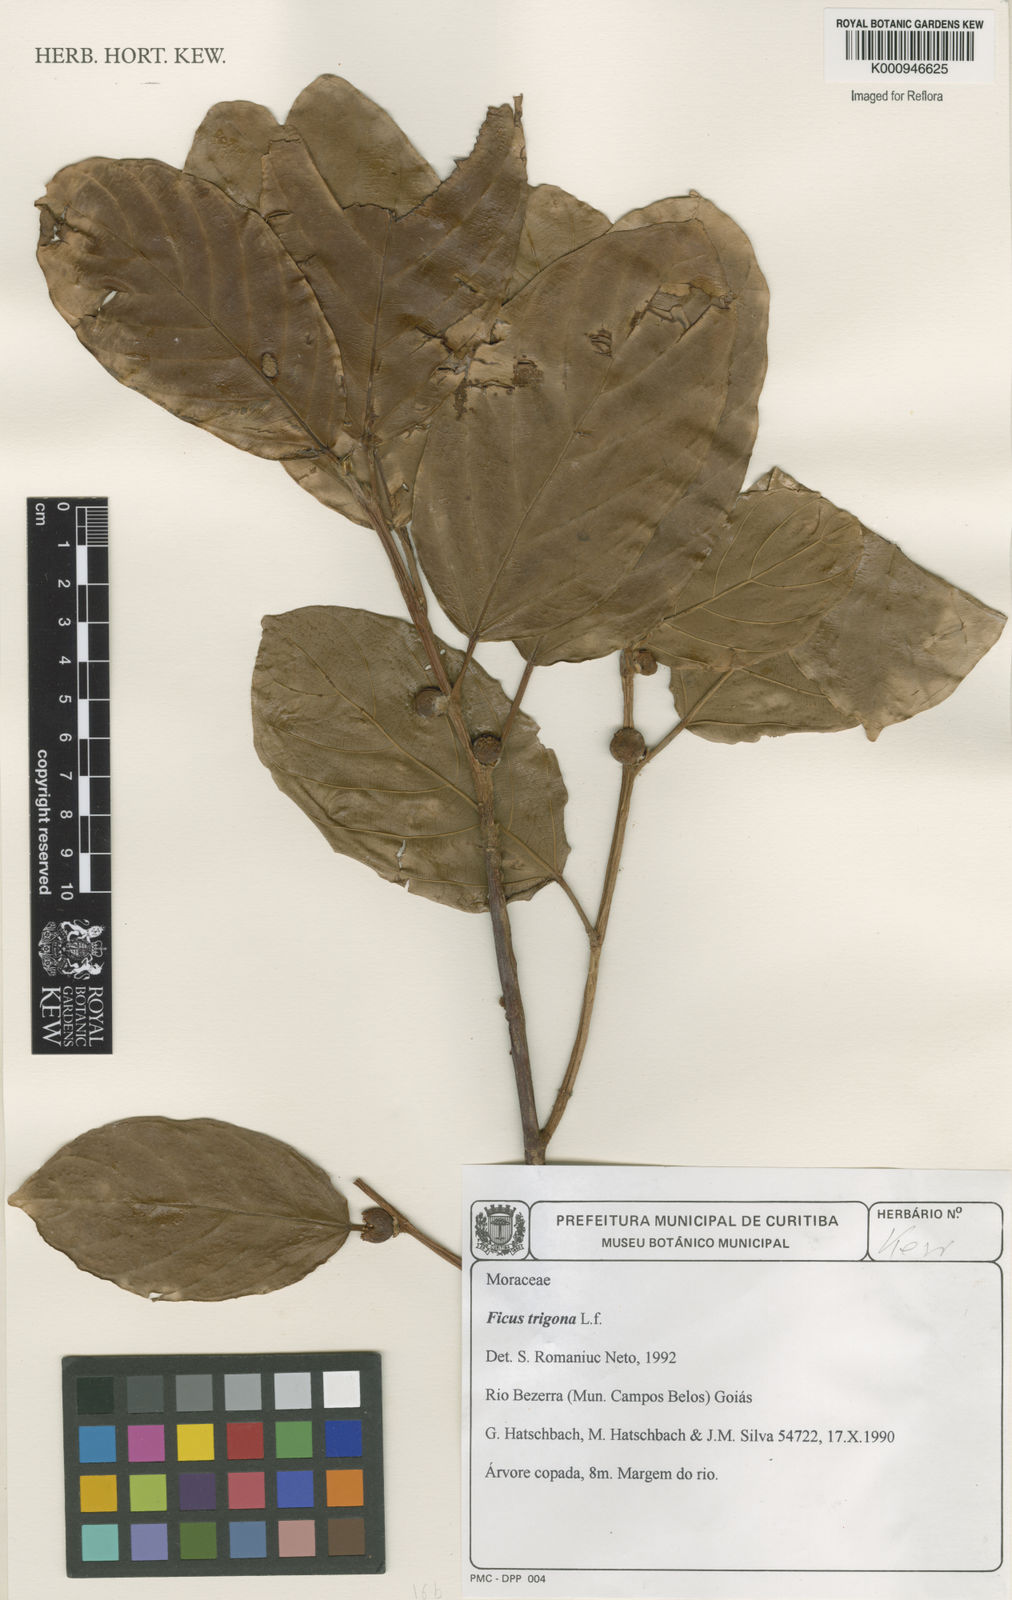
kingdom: Plantae
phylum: Tracheophyta
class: Magnoliopsida
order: Rosales
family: Moraceae
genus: Ficus
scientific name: Ficus trigona
